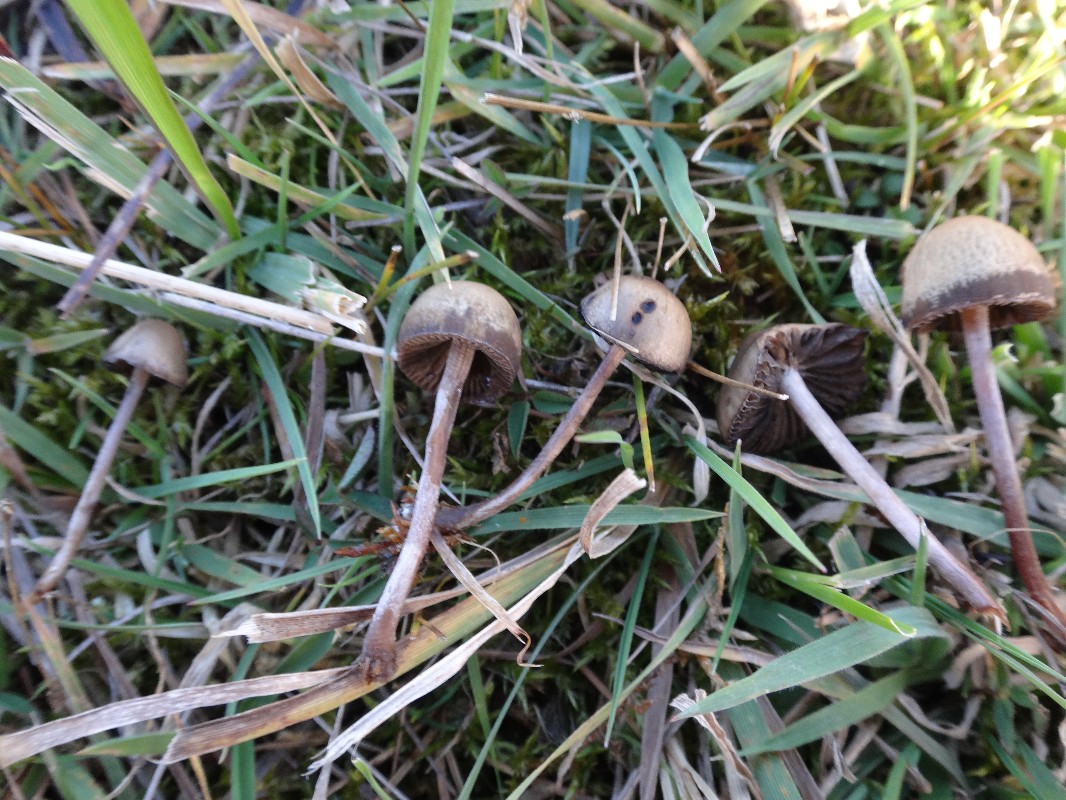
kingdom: Fungi
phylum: Basidiomycota
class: Agaricomycetes
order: Agaricales
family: Bolbitiaceae
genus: Panaeolus
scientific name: Panaeolus olivaceus
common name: lysstokket glanshat
